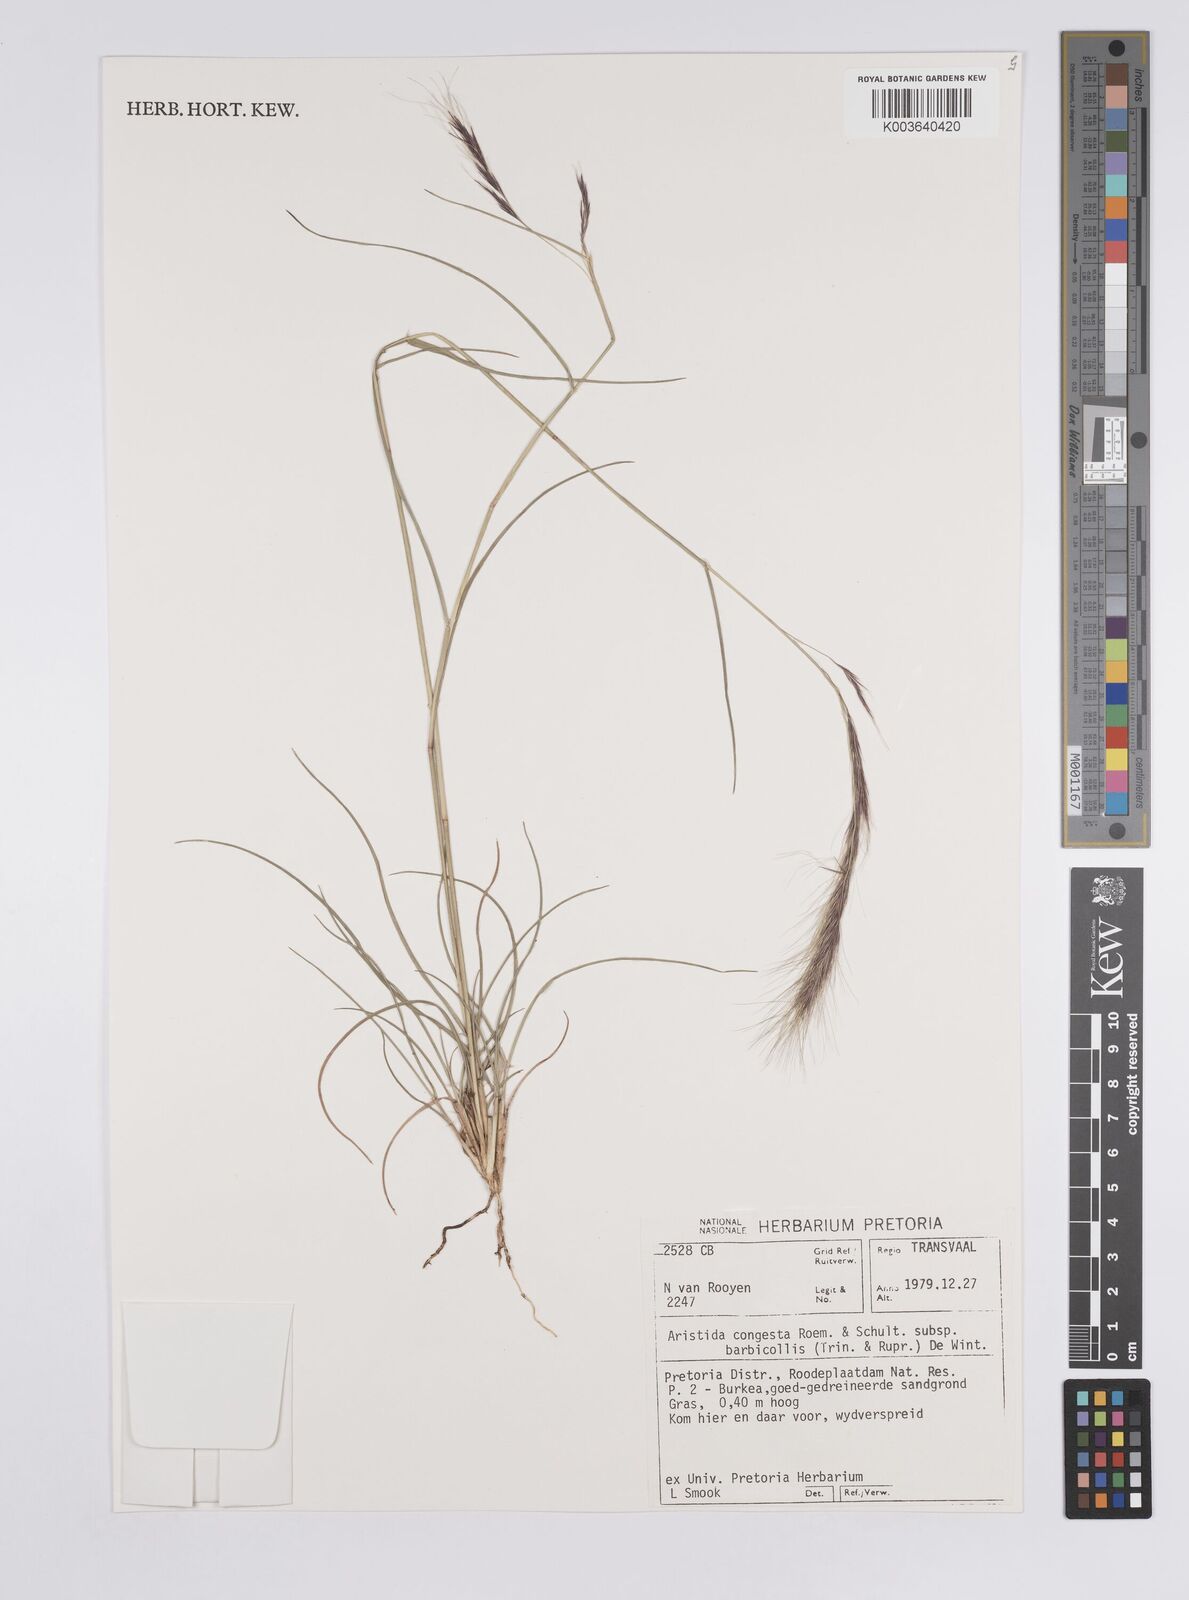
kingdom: Plantae
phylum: Tracheophyta
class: Liliopsida
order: Poales
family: Poaceae
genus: Aristida
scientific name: Aristida barbicollis
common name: Spreading prickle grass
